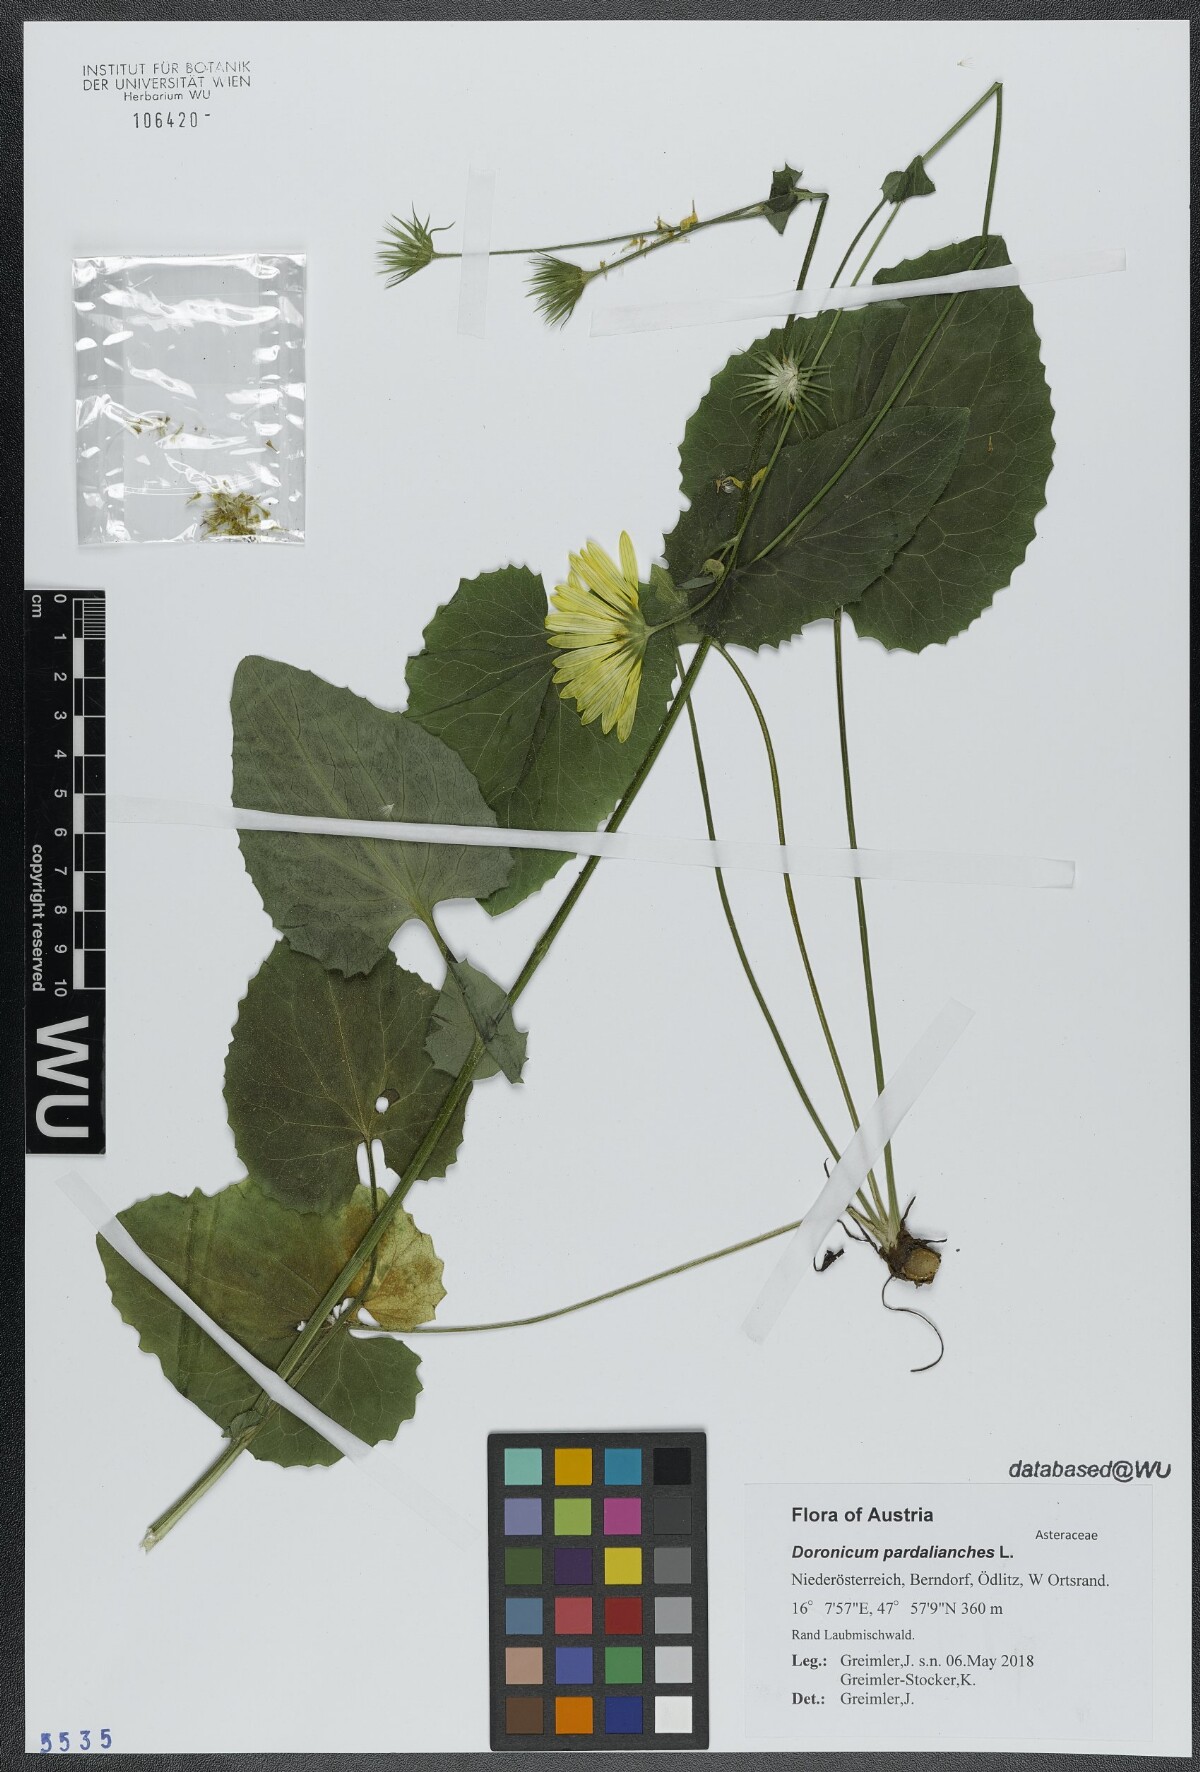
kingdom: Plantae
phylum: Tracheophyta
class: Magnoliopsida
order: Asterales
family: Asteraceae
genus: Doronicum
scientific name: Doronicum pardalianches
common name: Leopard's-bane
